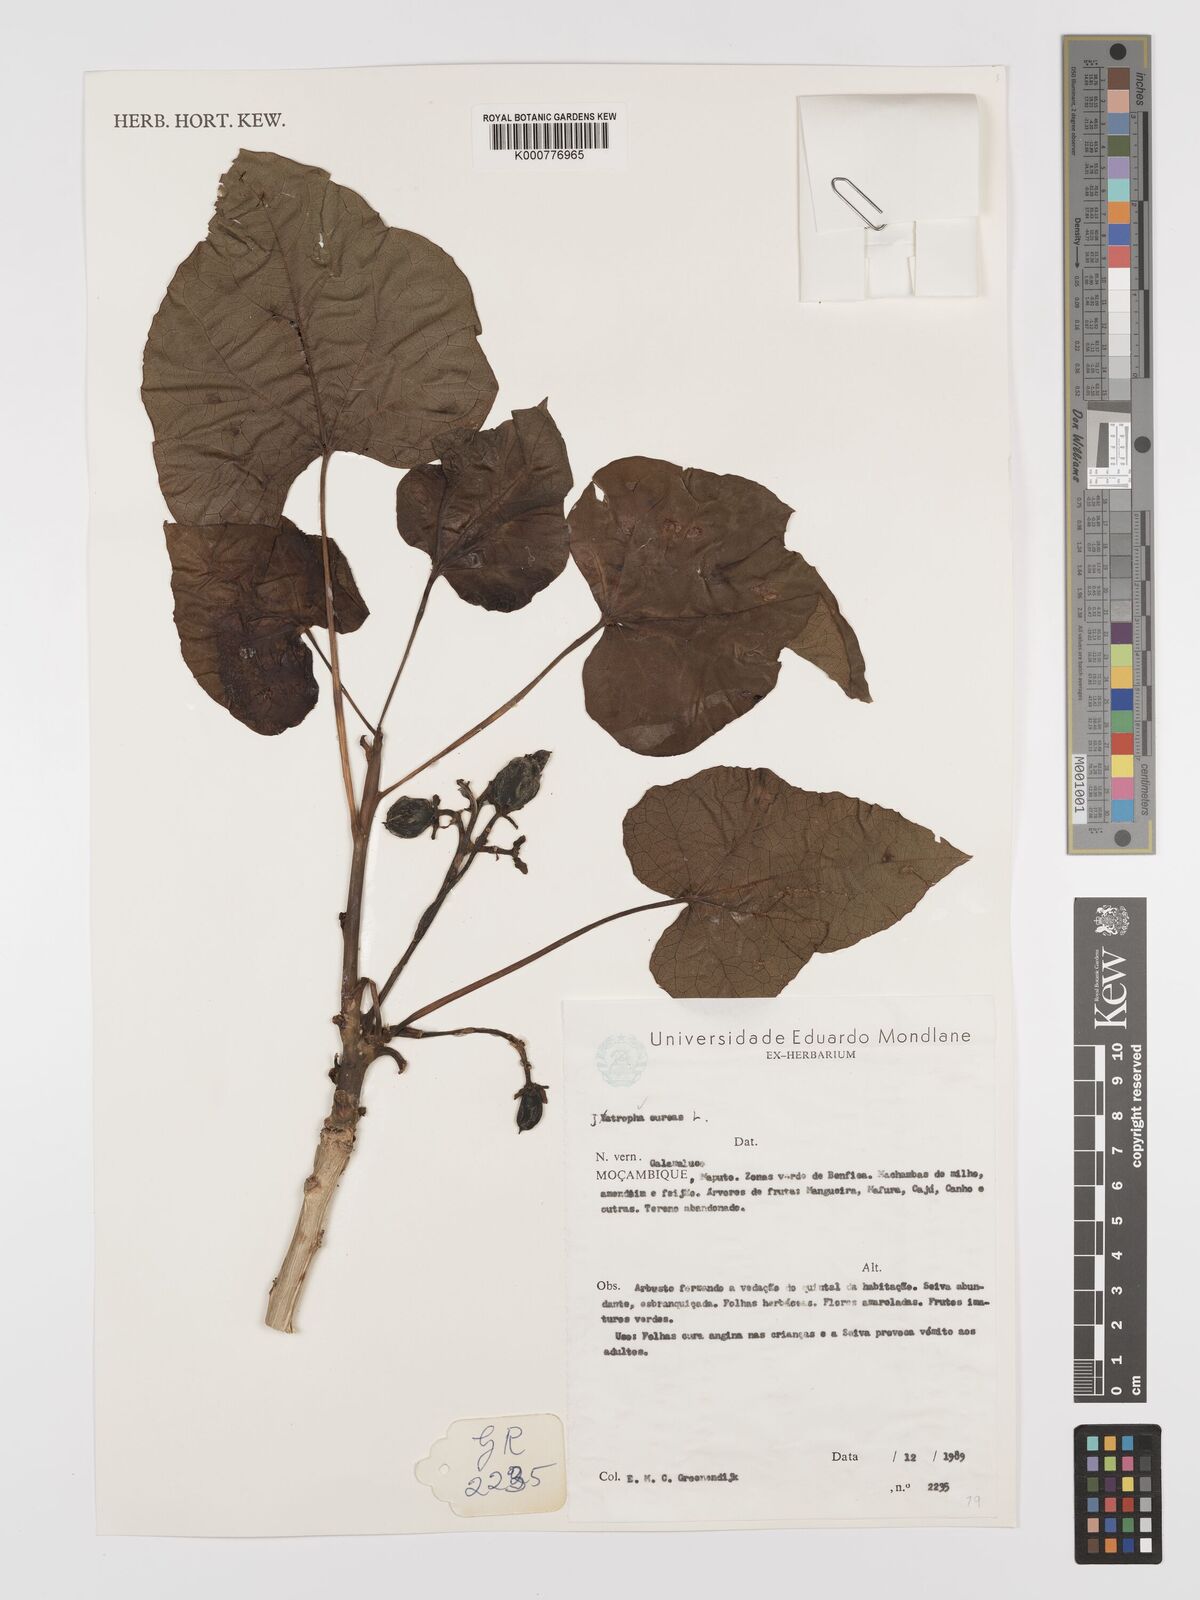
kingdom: Plantae
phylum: Tracheophyta
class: Magnoliopsida
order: Malpighiales
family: Euphorbiaceae
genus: Jatropha
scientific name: Jatropha curcas
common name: Barbados nut
